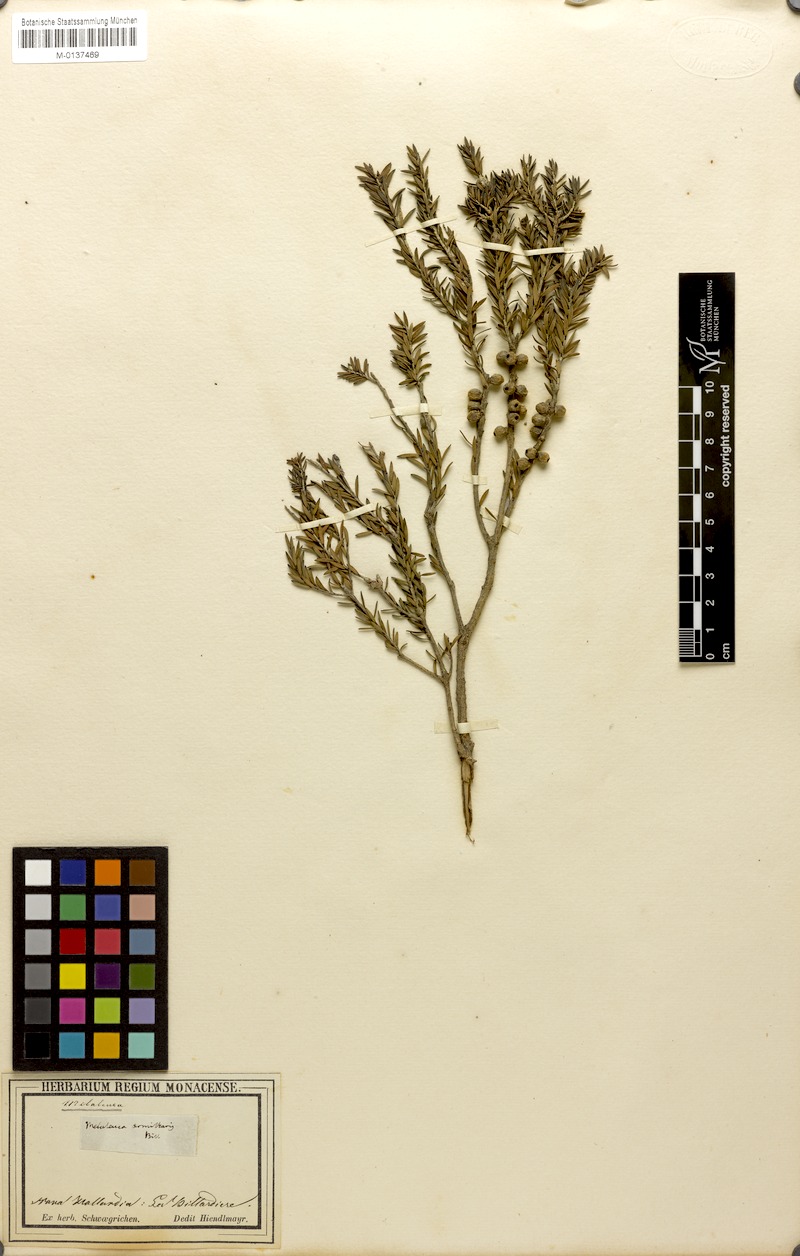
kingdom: Plantae
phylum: Tracheophyta
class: Magnoliopsida
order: Myrtales
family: Myrtaceae
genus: Melaleuca
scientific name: Melaleuca armillaris
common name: Bracelet honey myrtle
